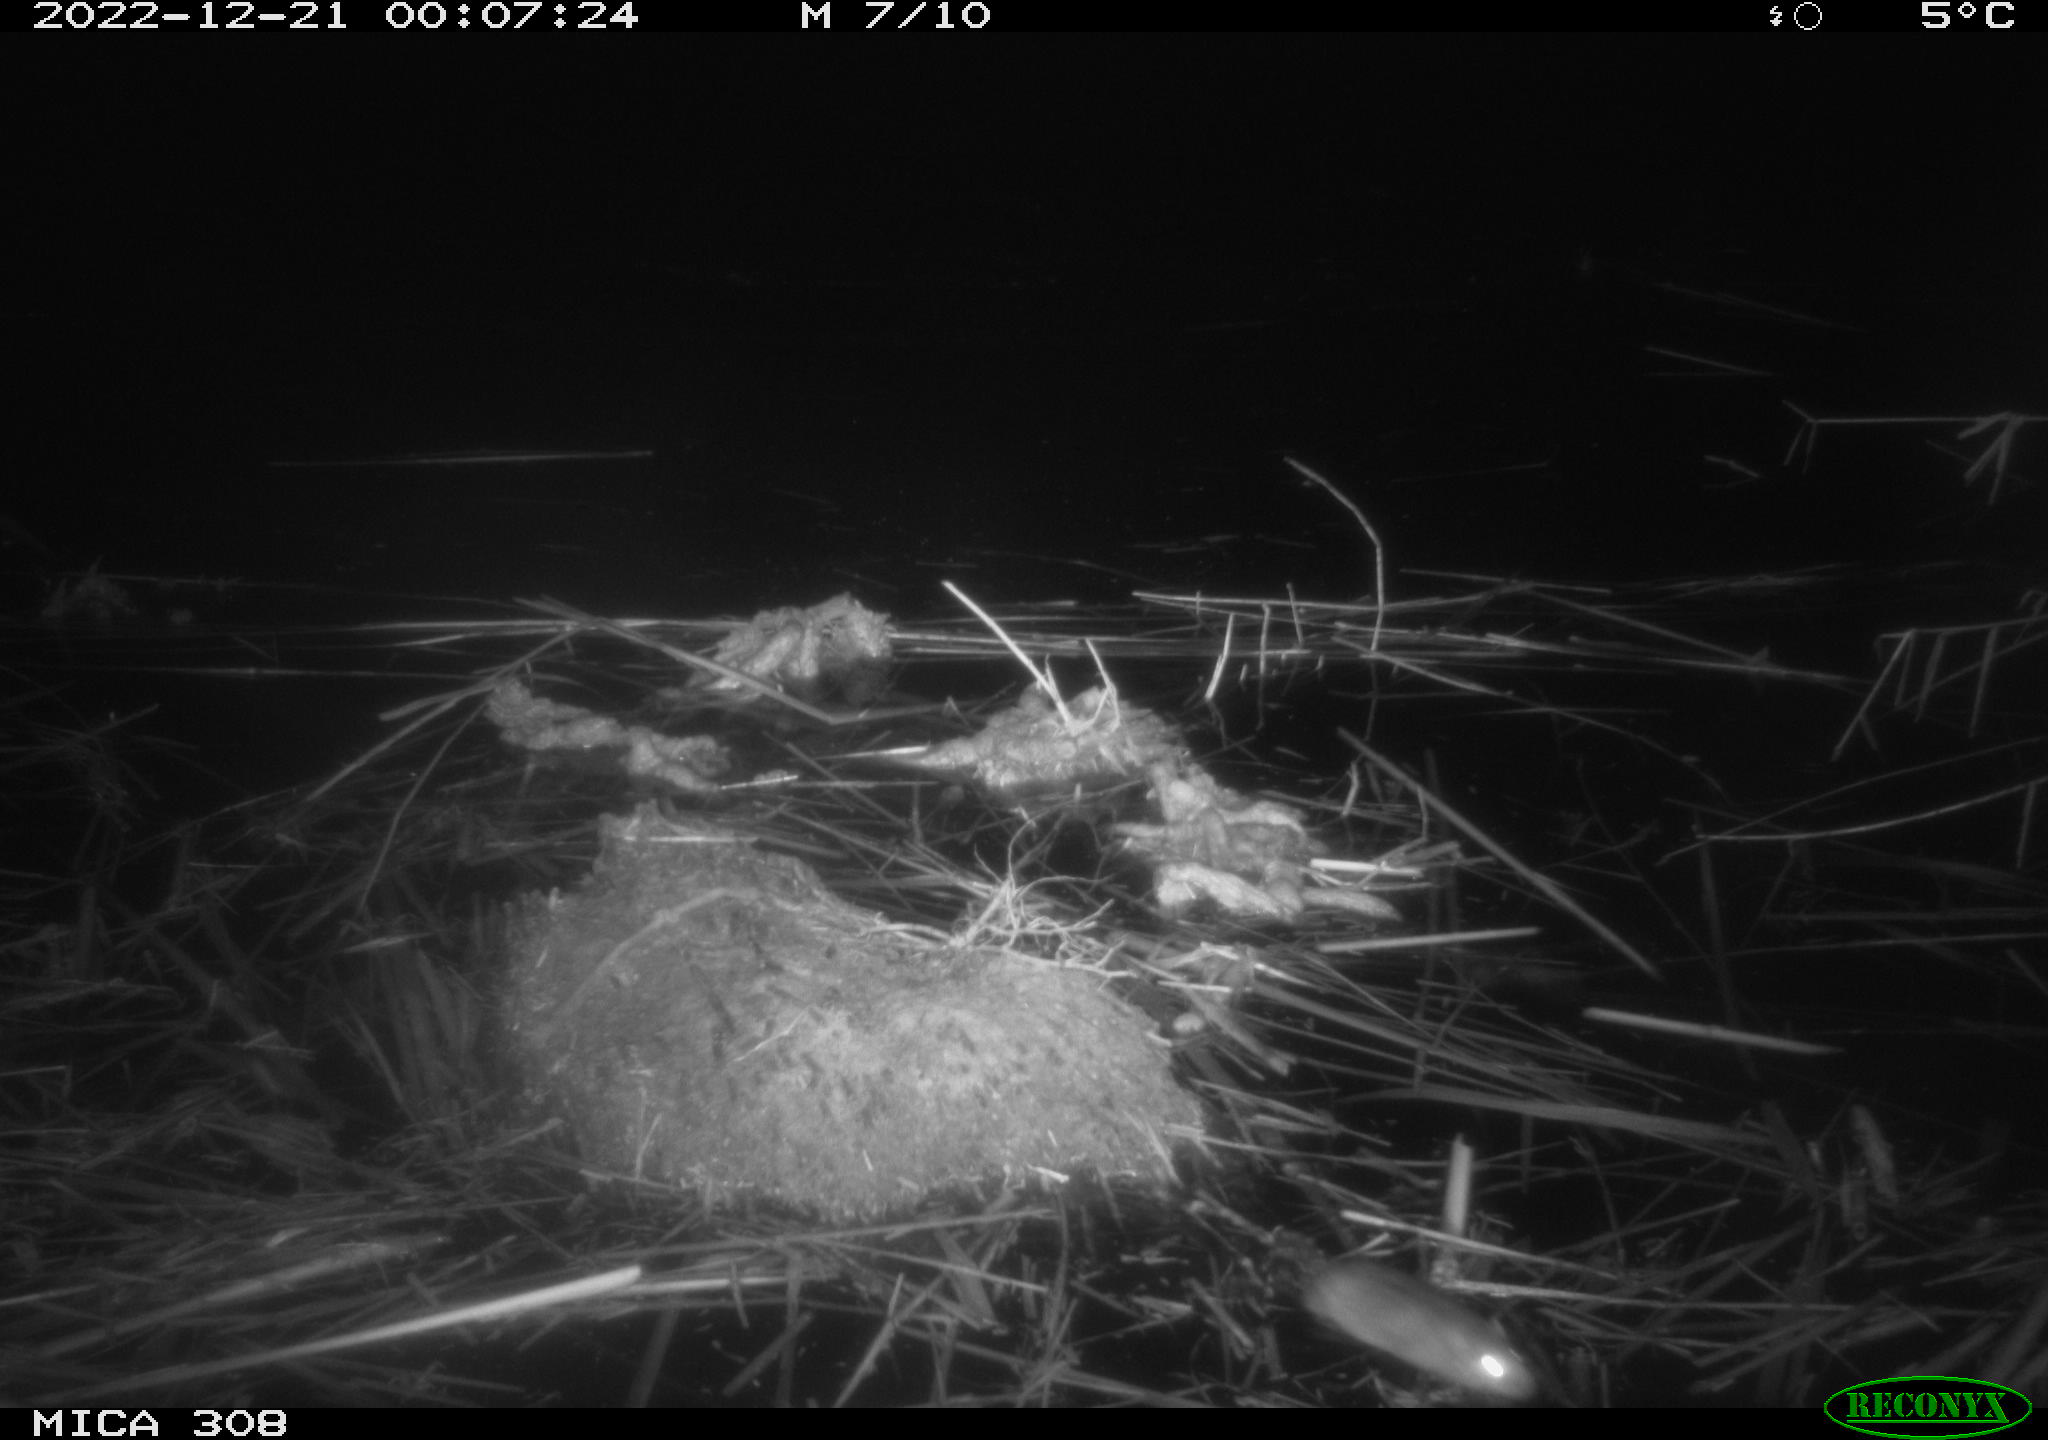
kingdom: Animalia
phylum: Chordata
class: Mammalia
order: Rodentia
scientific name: Rodentia
